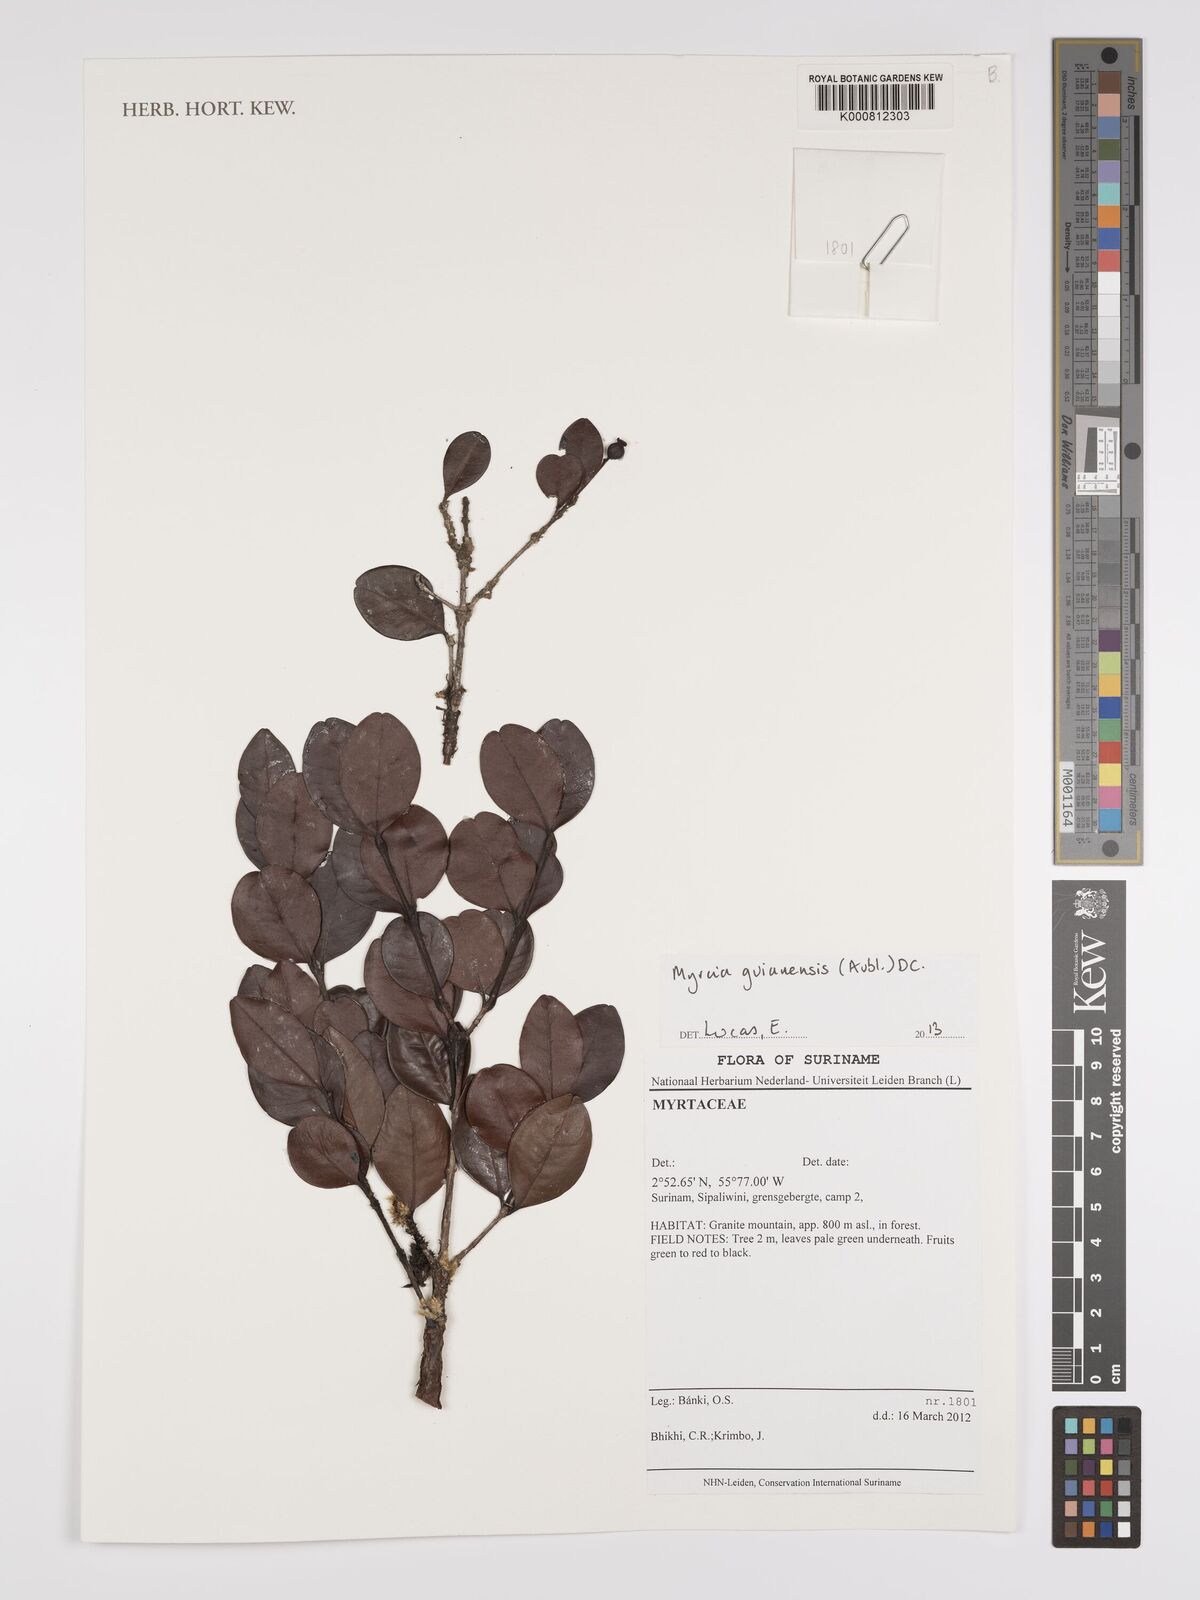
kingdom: Plantae
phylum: Tracheophyta
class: Magnoliopsida
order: Myrtales
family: Myrtaceae
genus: Eugenia
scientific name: Eugenia robustovenosa
